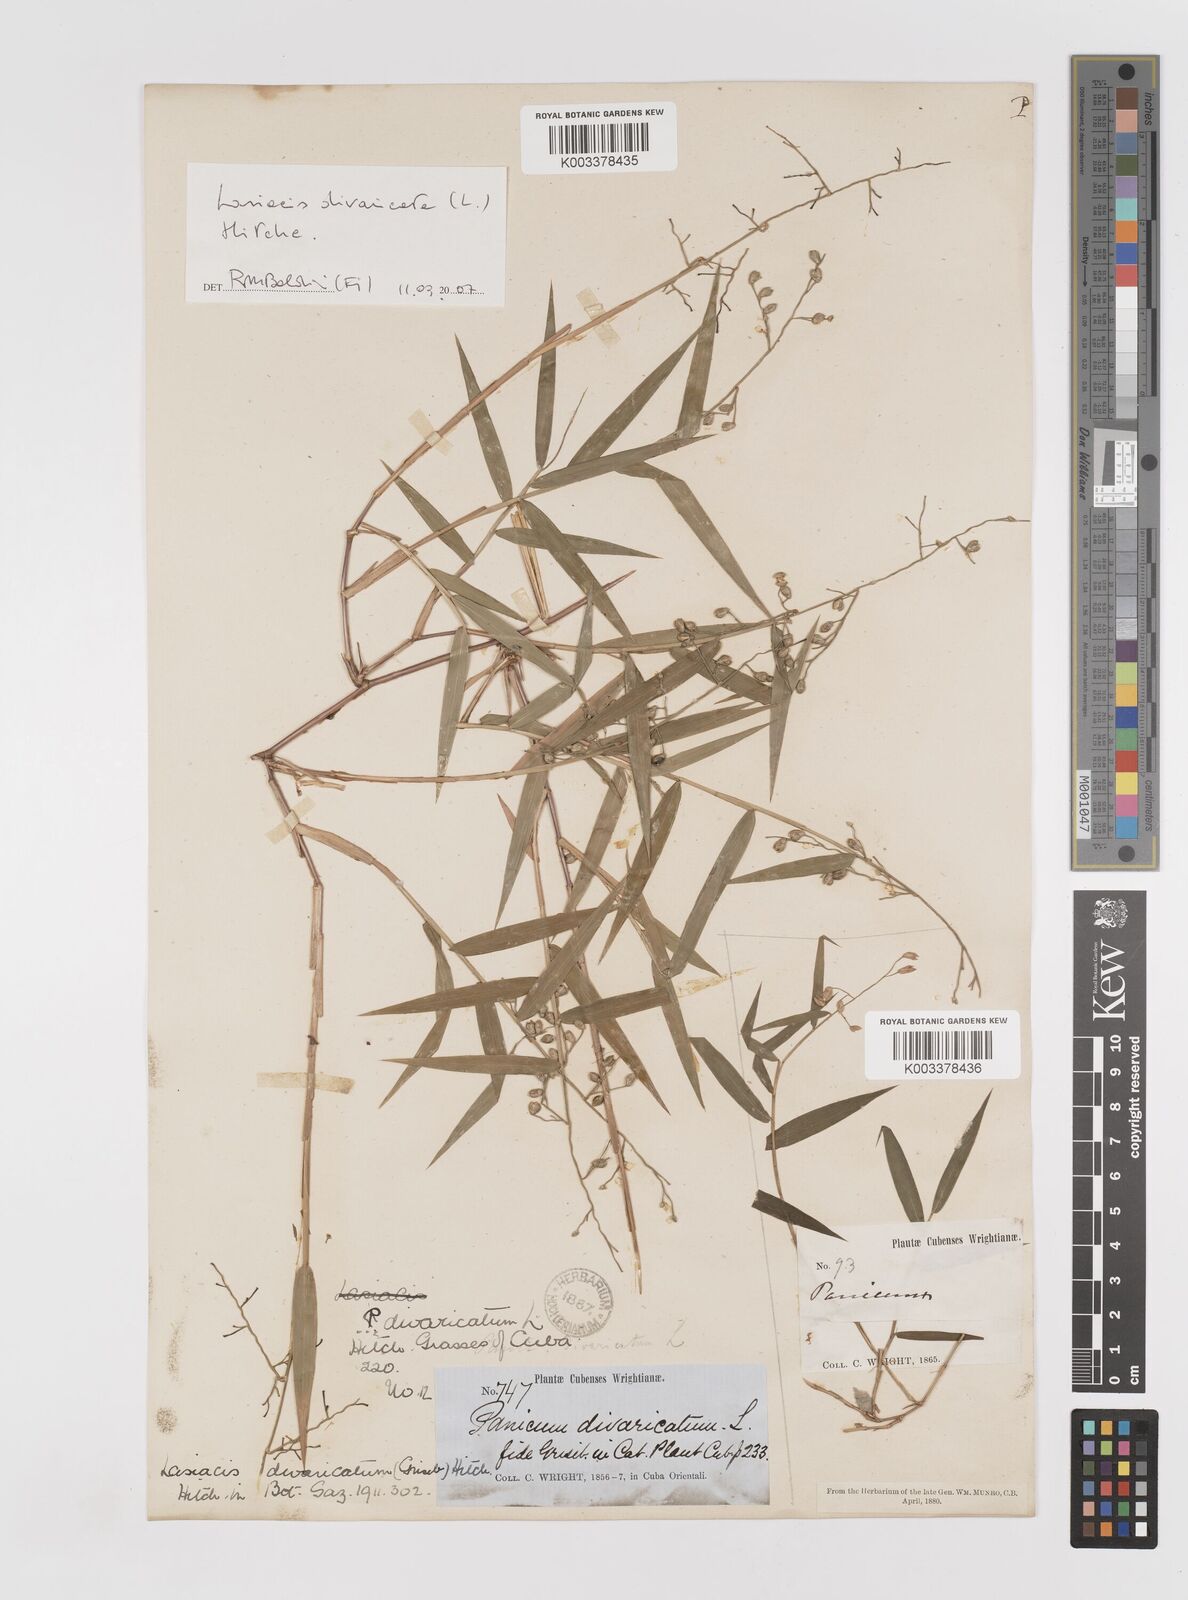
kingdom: Plantae
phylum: Tracheophyta
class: Liliopsida
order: Poales
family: Poaceae
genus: Lasiacis
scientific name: Lasiacis divaricata
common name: Smallcane
